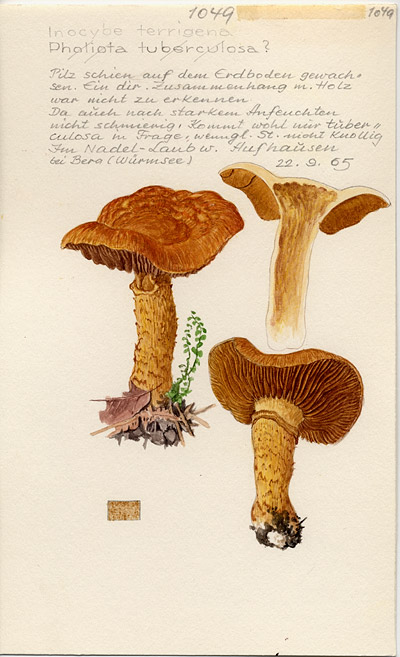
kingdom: Fungi
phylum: Basidiomycota
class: Agaricomycetes
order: Agaricales
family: Inocybaceae
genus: Mallocybe
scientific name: Mallocybe terrigena
